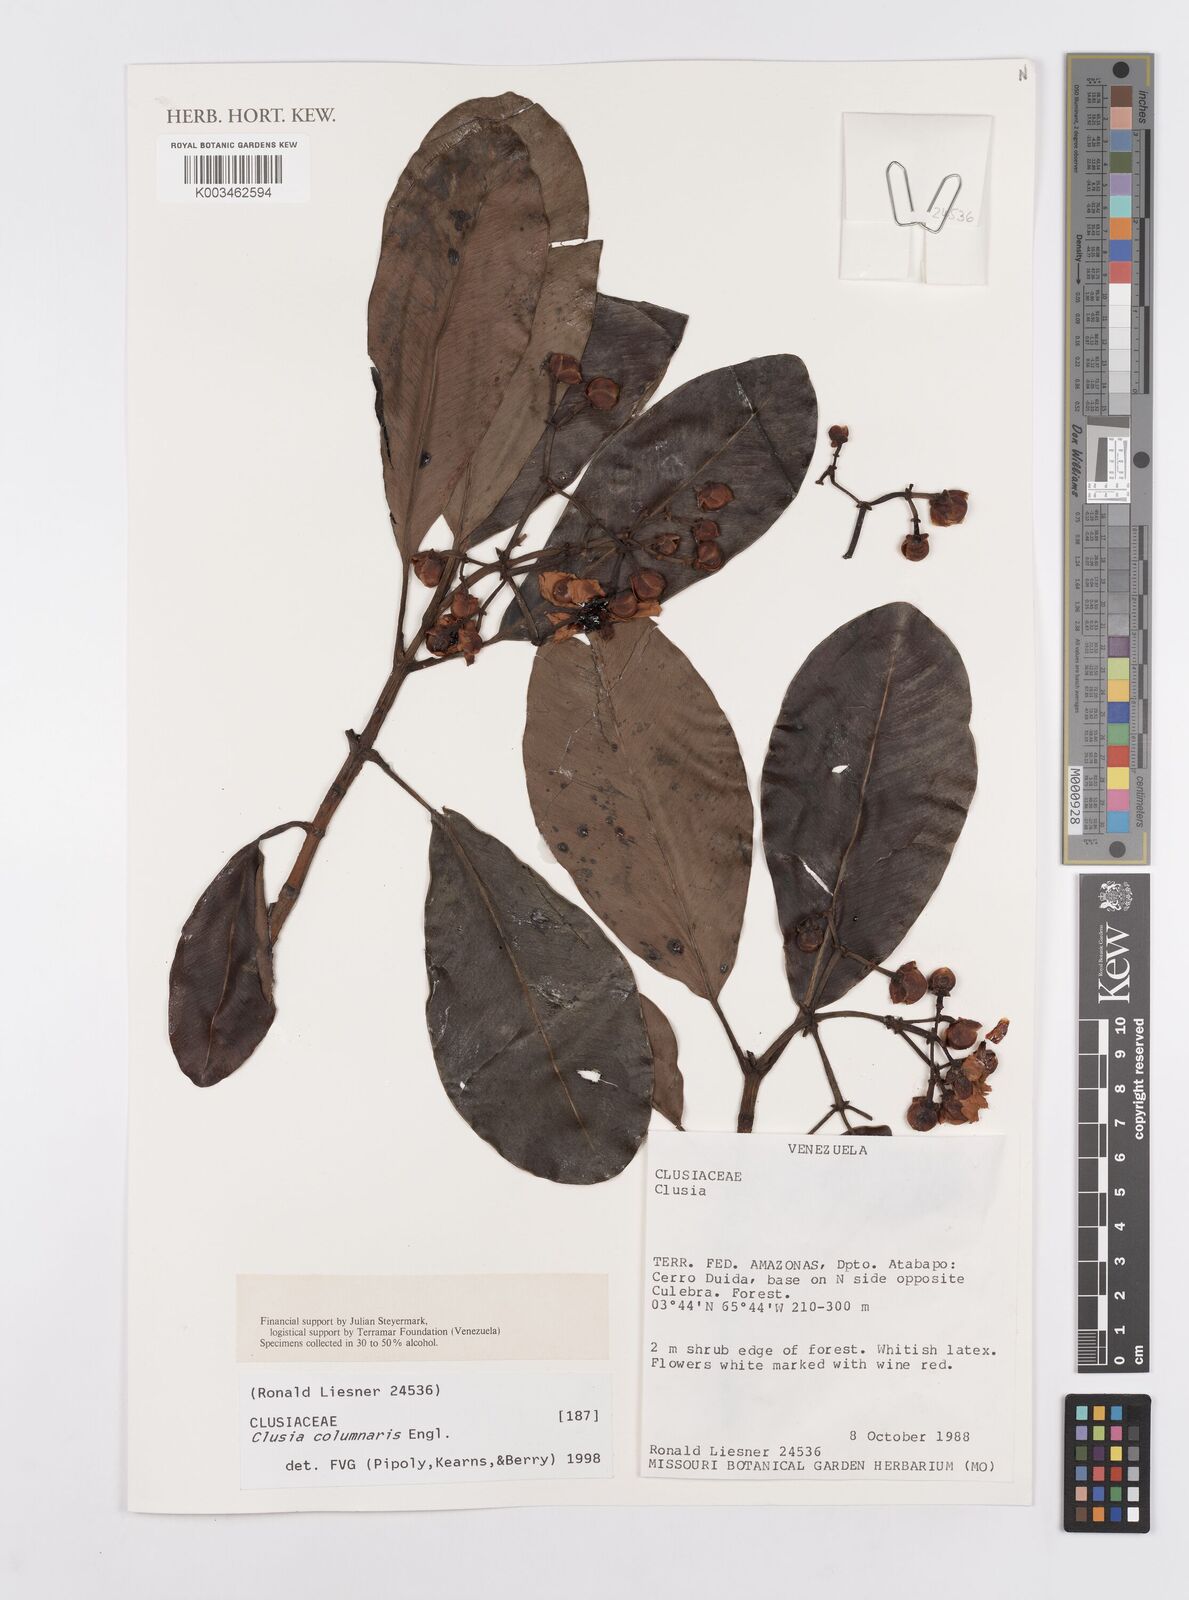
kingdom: Plantae
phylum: Tracheophyta
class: Magnoliopsida
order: Malpighiales
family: Clusiaceae
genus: Clusia
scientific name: Clusia columnaris
